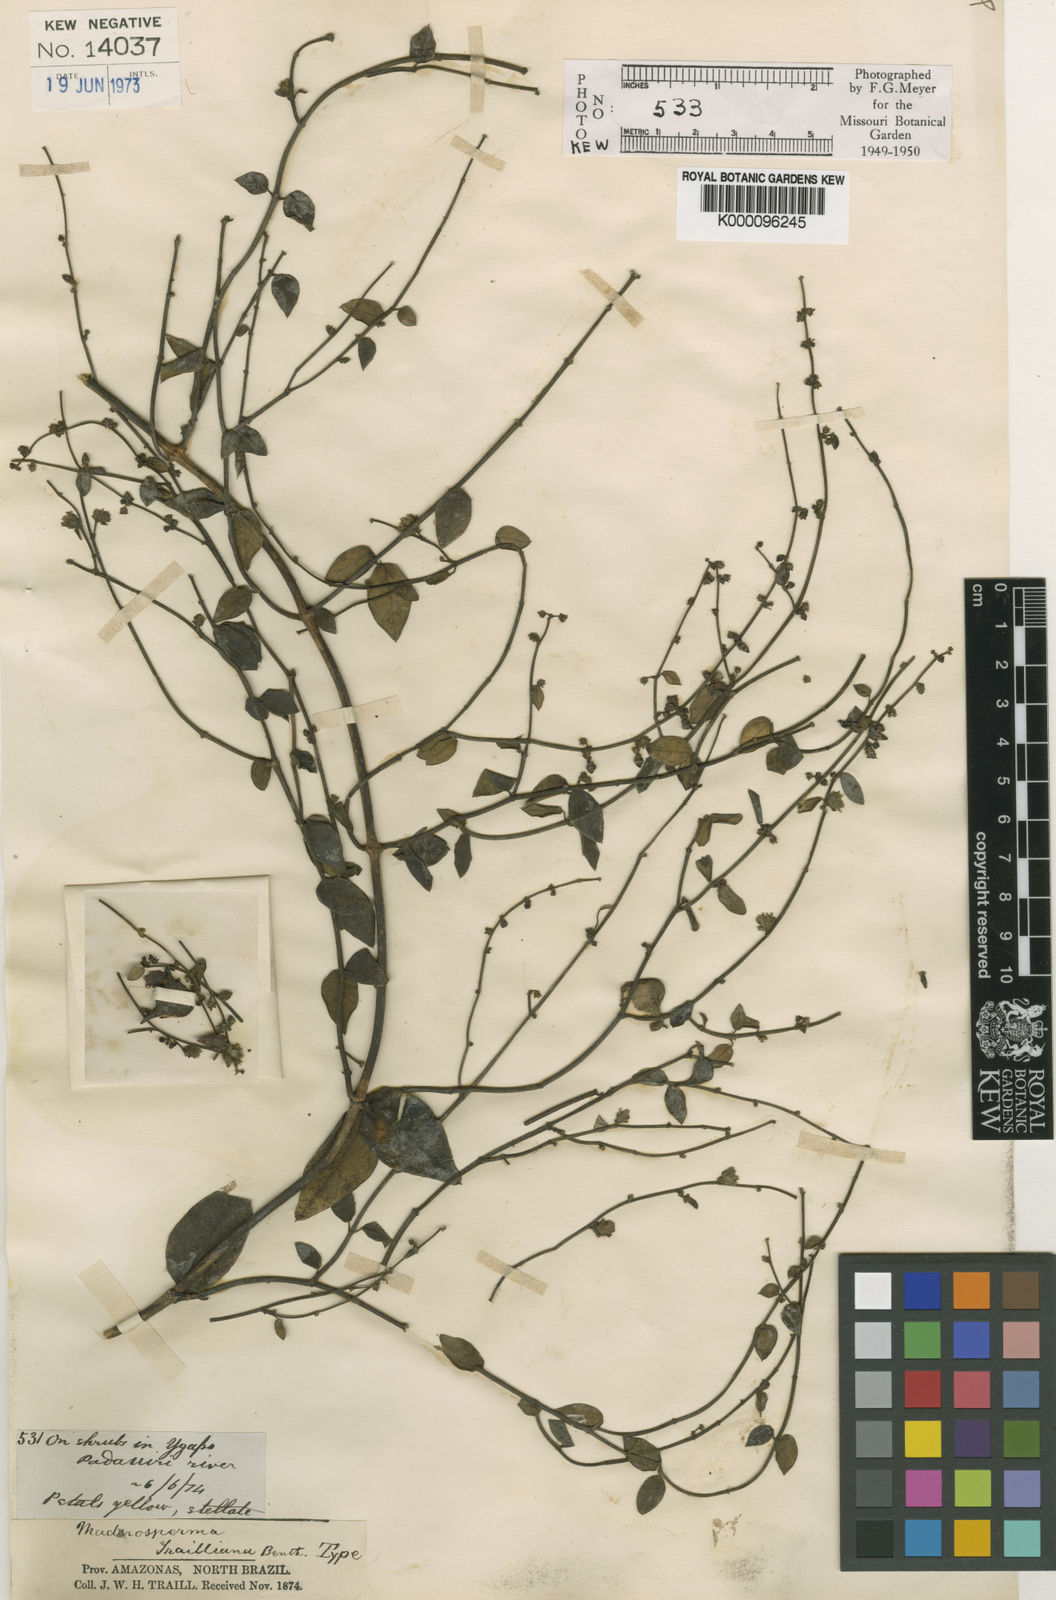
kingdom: Plantae
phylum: Tracheophyta
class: Magnoliopsida
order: Gentianales
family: Apocynaceae
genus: Tassadia
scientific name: Tassadia trailiana
